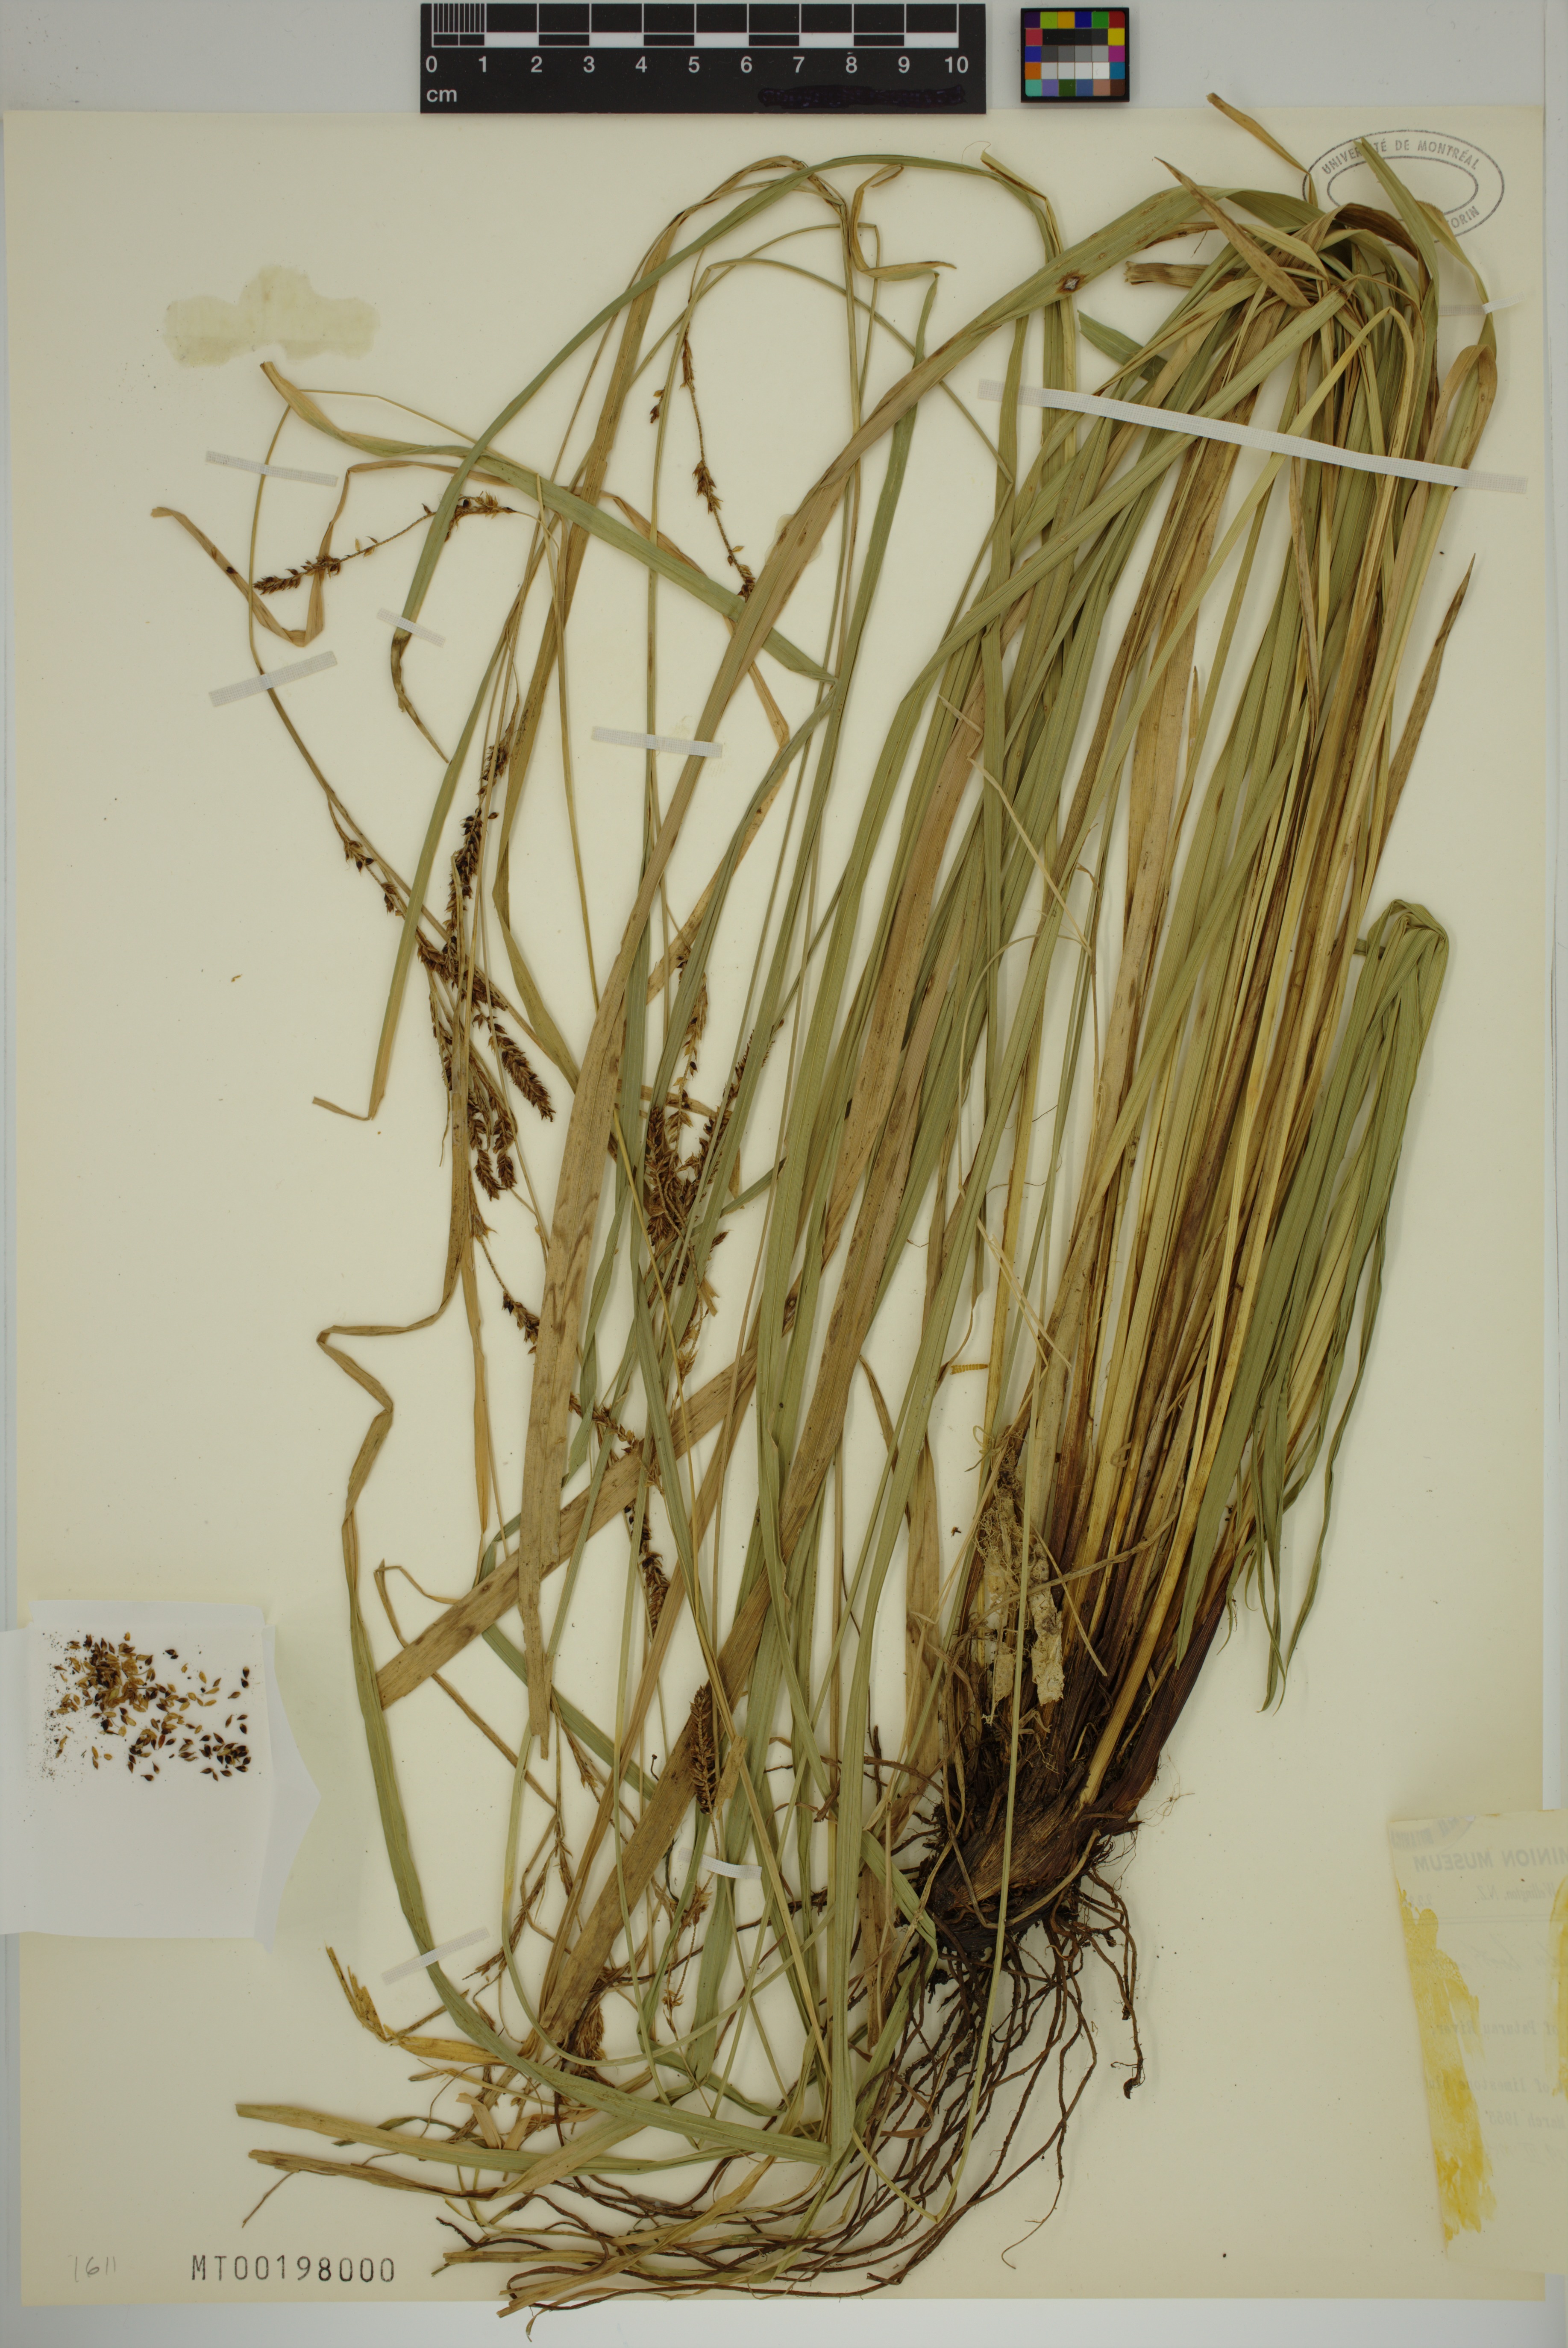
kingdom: Plantae
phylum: Tracheophyta
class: Liliopsida
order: Poales
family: Cyperaceae
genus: Carex
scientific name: Carex solandri
